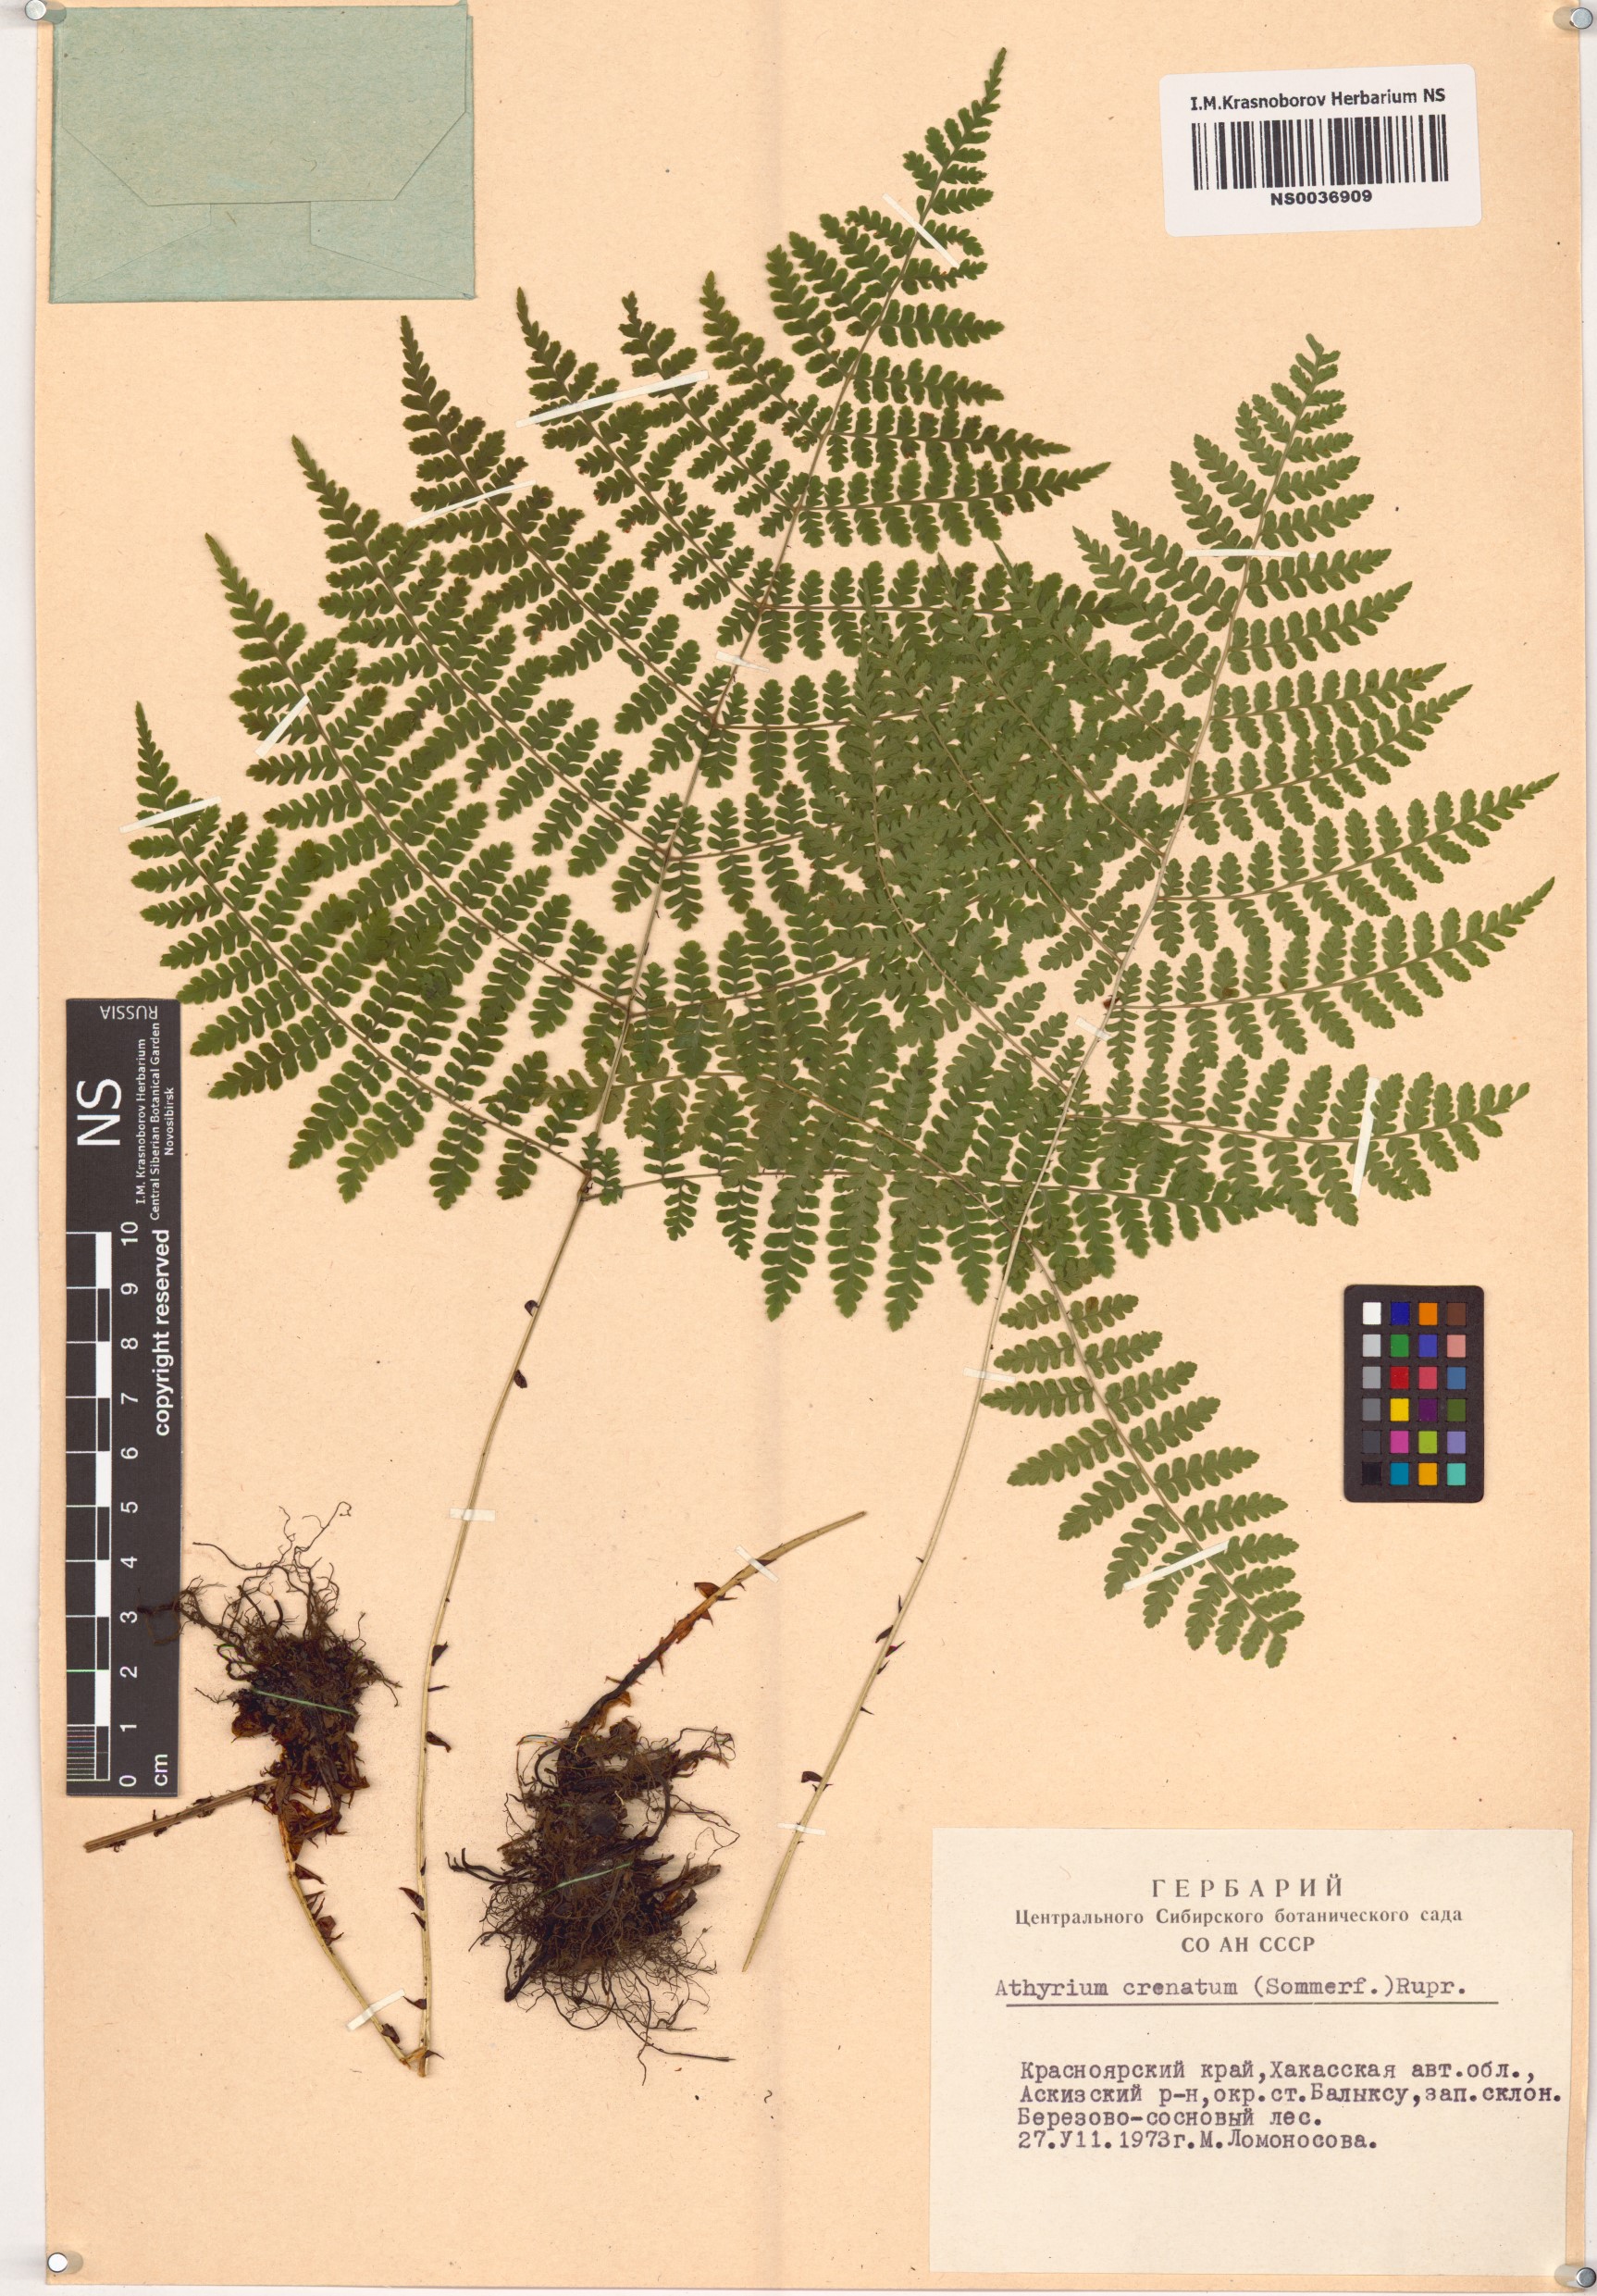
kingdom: Plantae
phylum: Tracheophyta
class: Polypodiopsida
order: Polypodiales
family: Athyriaceae
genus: Diplazium
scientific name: Diplazium sibiricum
